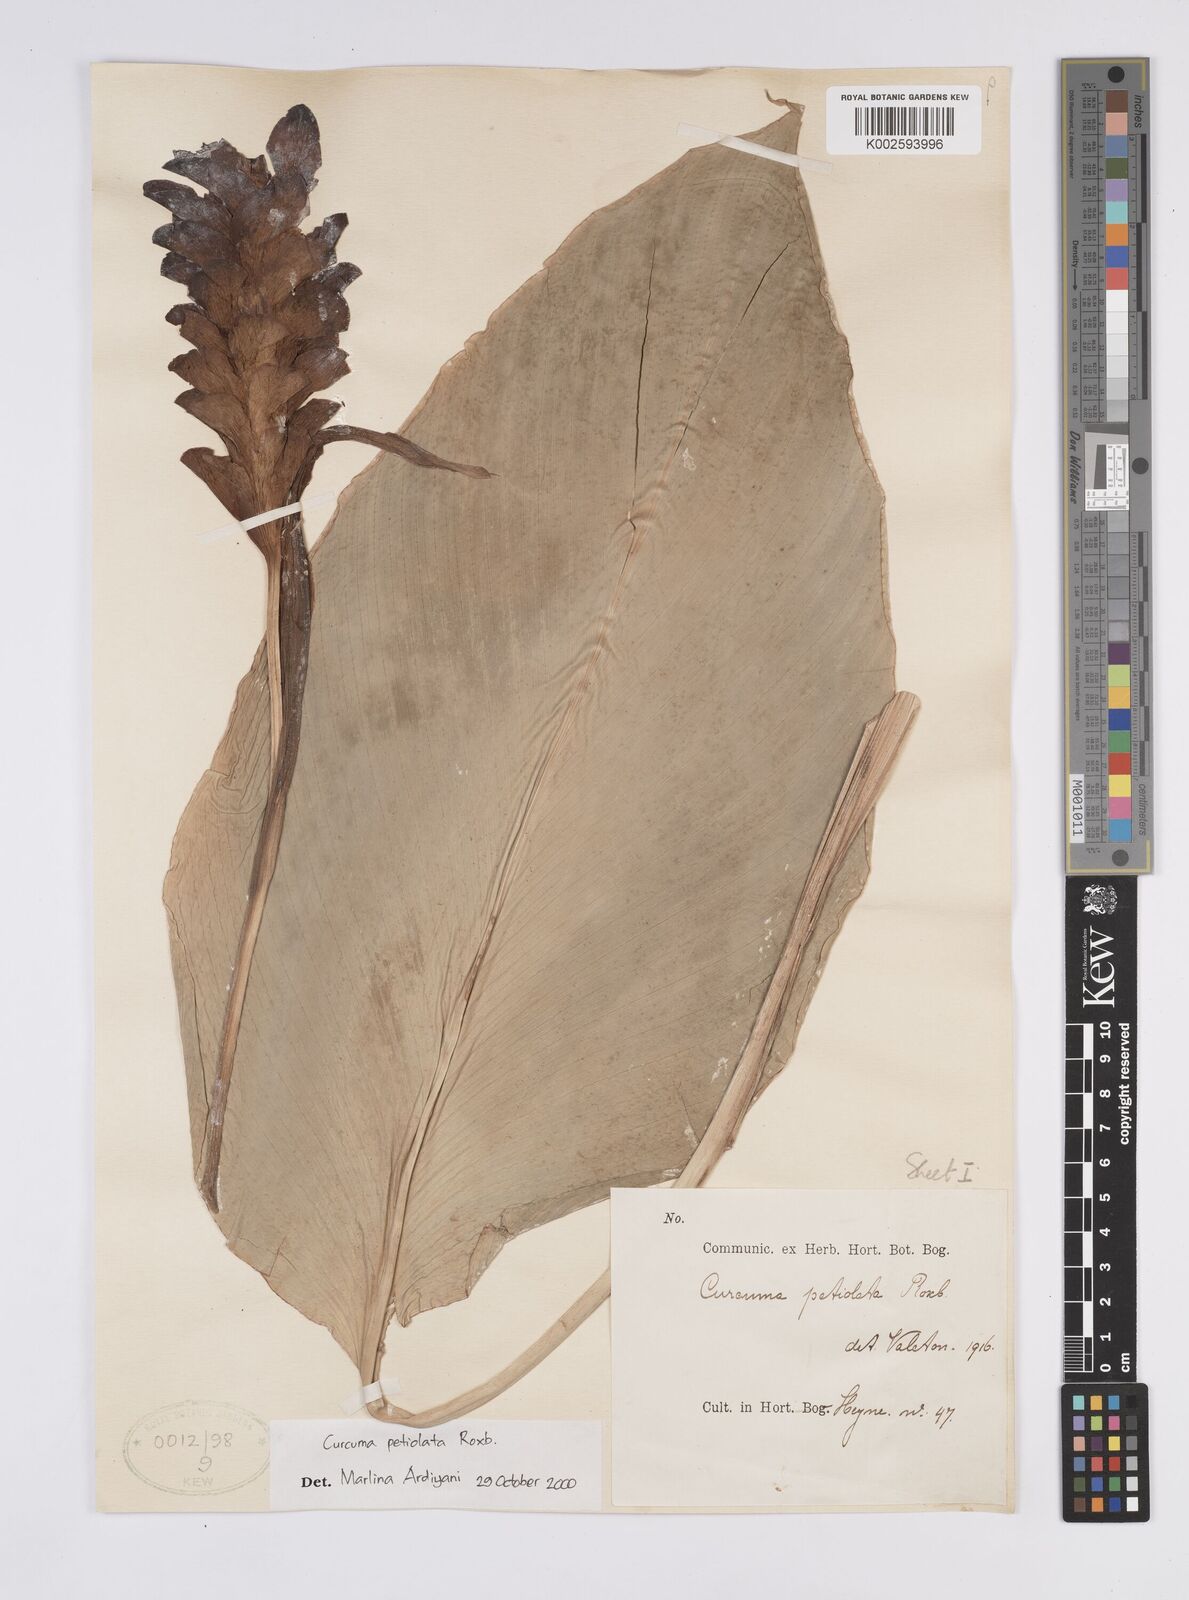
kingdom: Plantae
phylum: Tracheophyta
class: Liliopsida
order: Zingiberales
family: Zingiberaceae
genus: Curcuma
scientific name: Curcuma petiolata
